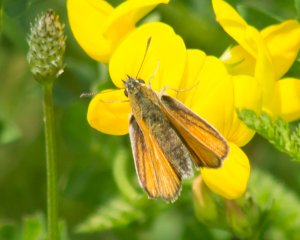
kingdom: Animalia
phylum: Arthropoda
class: Insecta
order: Lepidoptera
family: Hesperiidae
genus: Thymelicus
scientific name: Thymelicus lineola
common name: European Skipper
